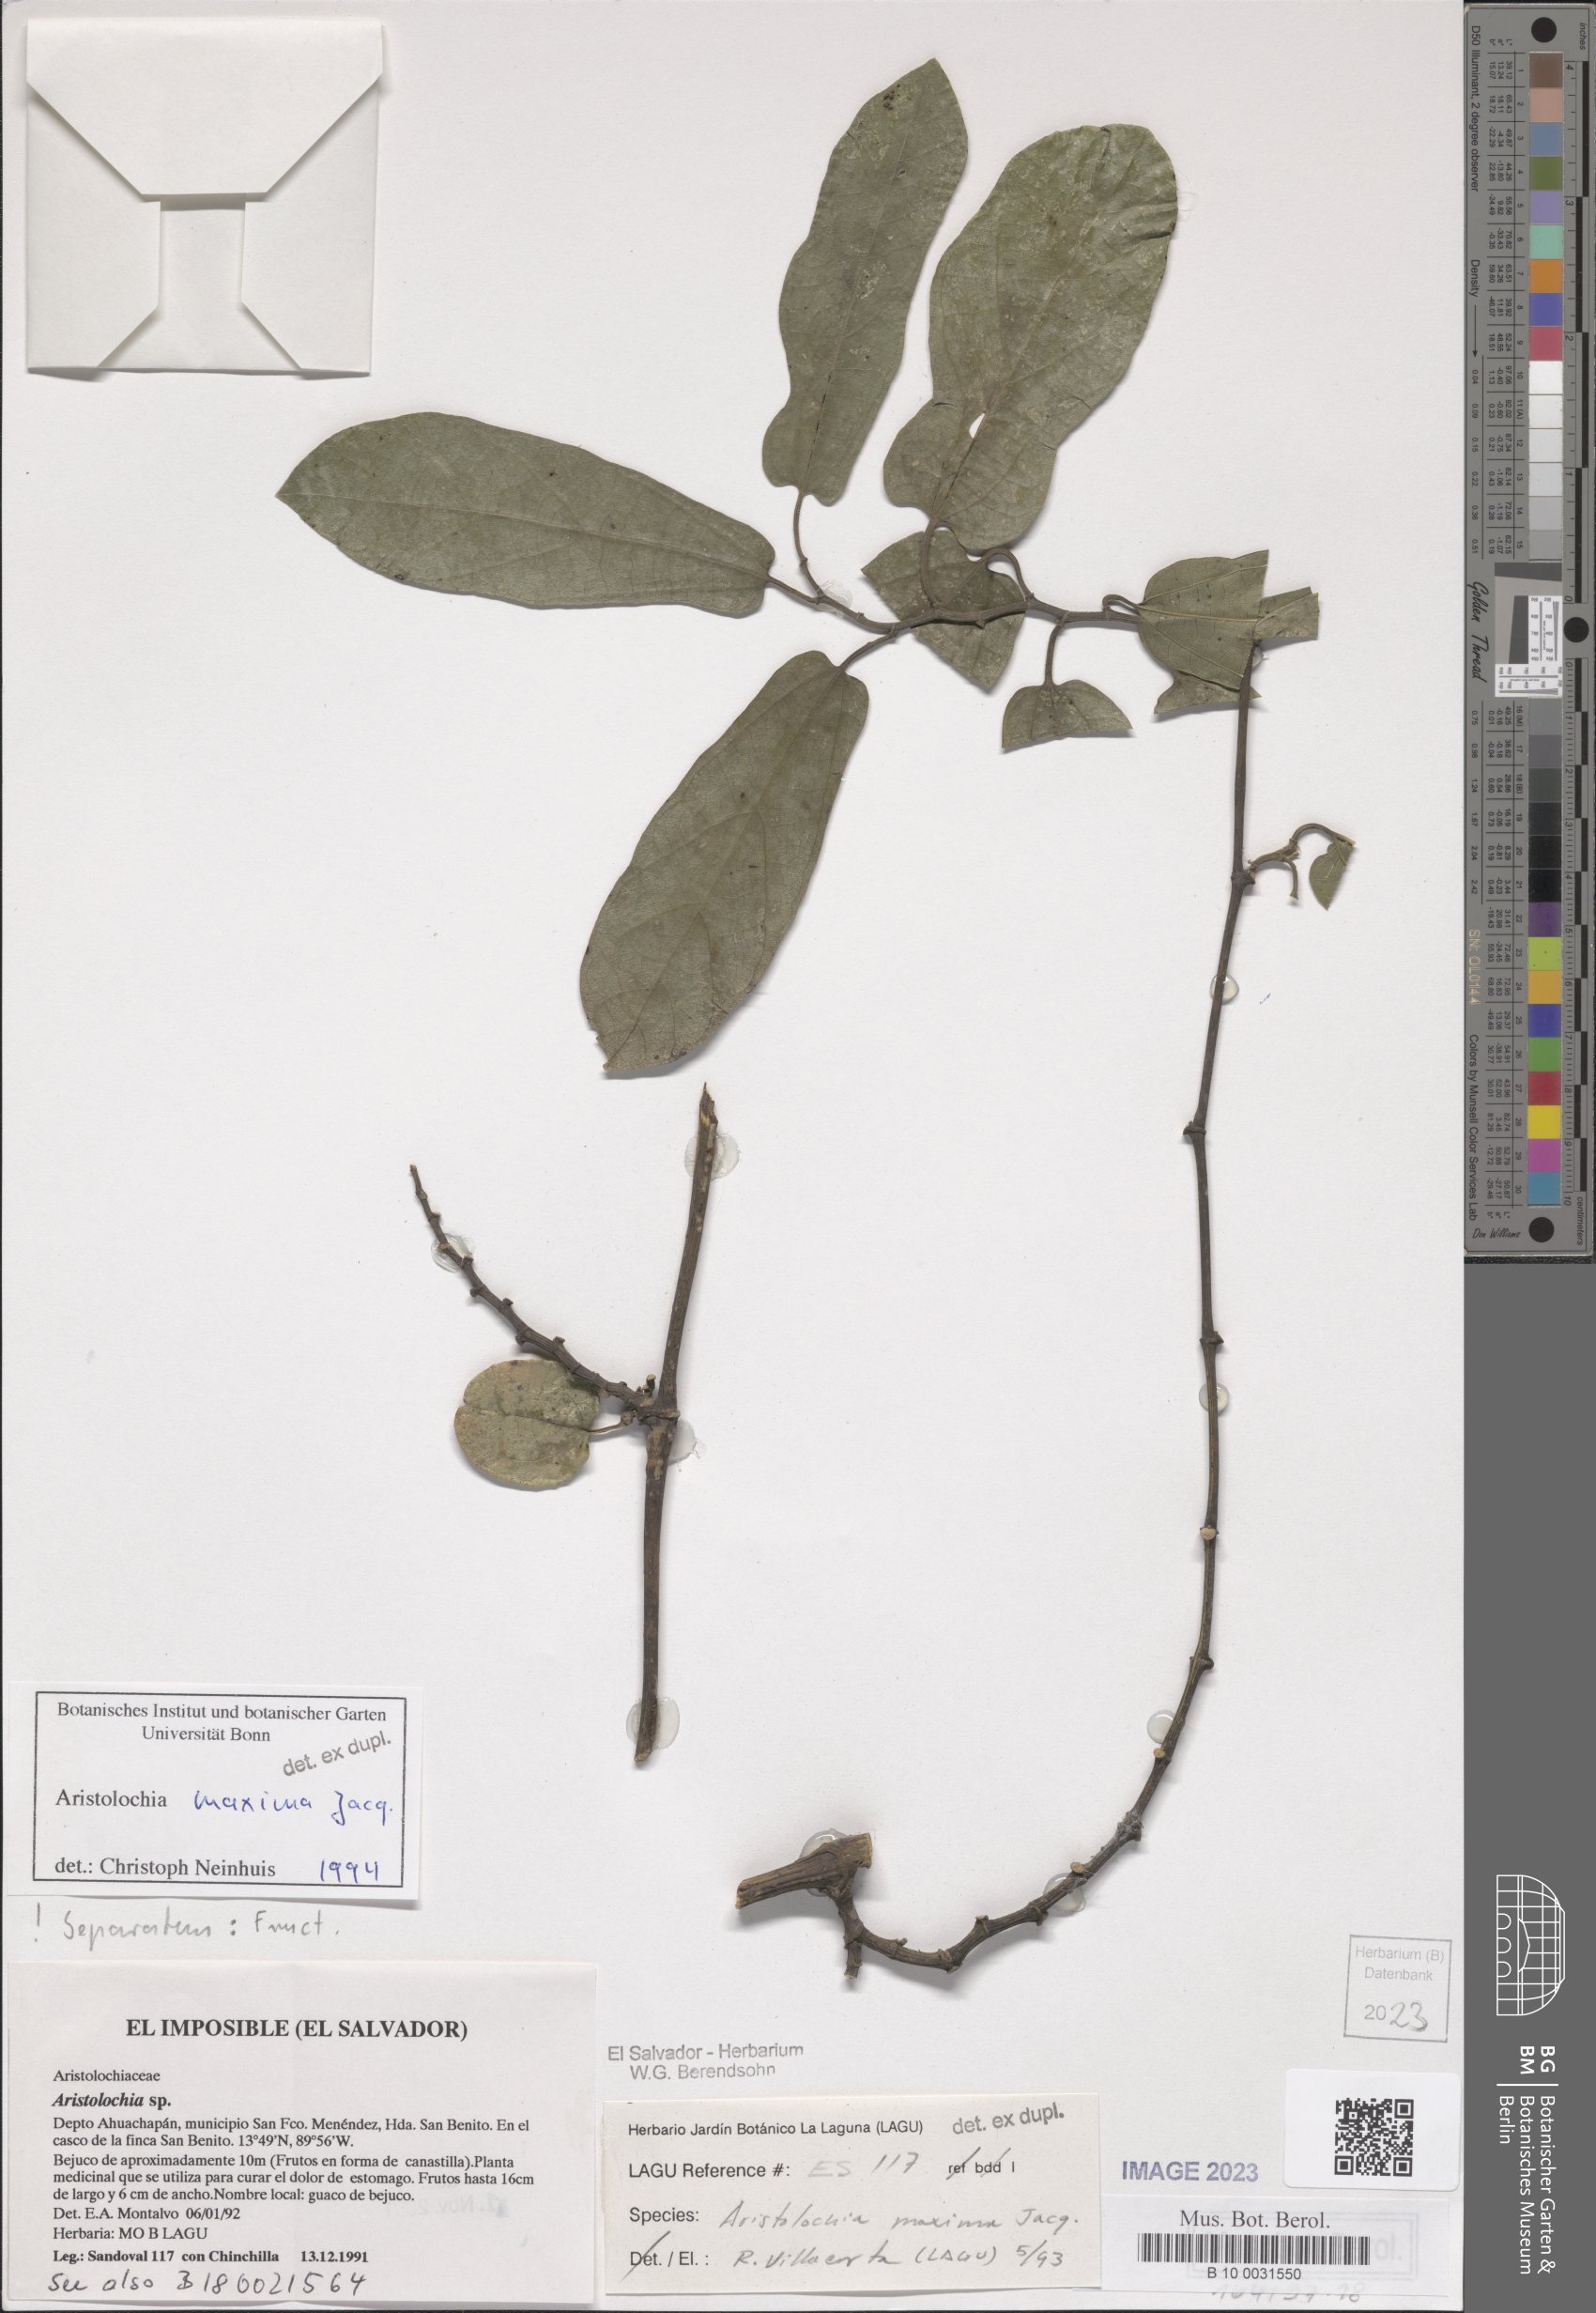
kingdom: Plantae
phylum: Tracheophyta
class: Magnoliopsida
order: Piperales
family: Aristolochiaceae
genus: Aristolochia
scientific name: Aristolochia maxima
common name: Florida dutchman's pipe
